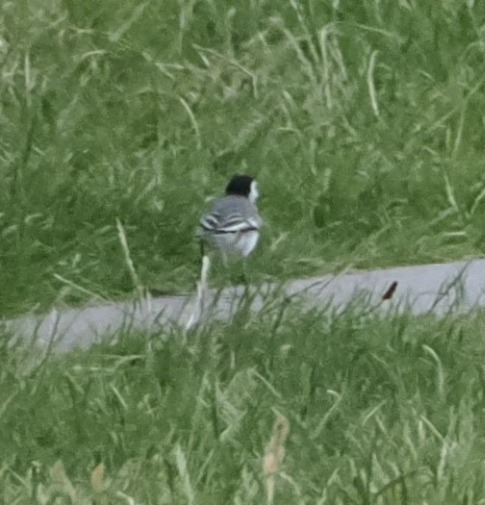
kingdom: Animalia
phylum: Chordata
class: Aves
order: Passeriformes
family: Motacillidae
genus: Motacilla
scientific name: Motacilla alba
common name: Hvid vipstjert
